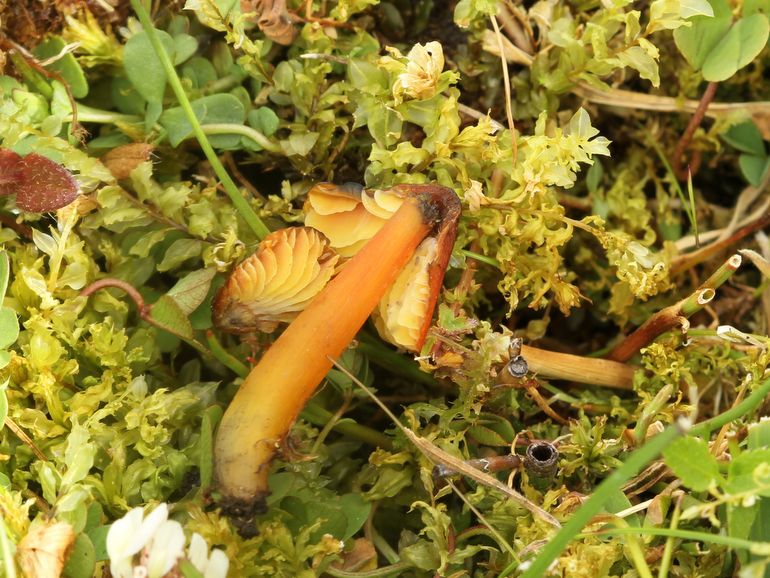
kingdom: Fungi
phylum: Basidiomycota
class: Agaricomycetes
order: Agaricales
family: Hygrophoraceae
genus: Hygrocybe
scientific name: Hygrocybe conica
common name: kegle-vokshat
